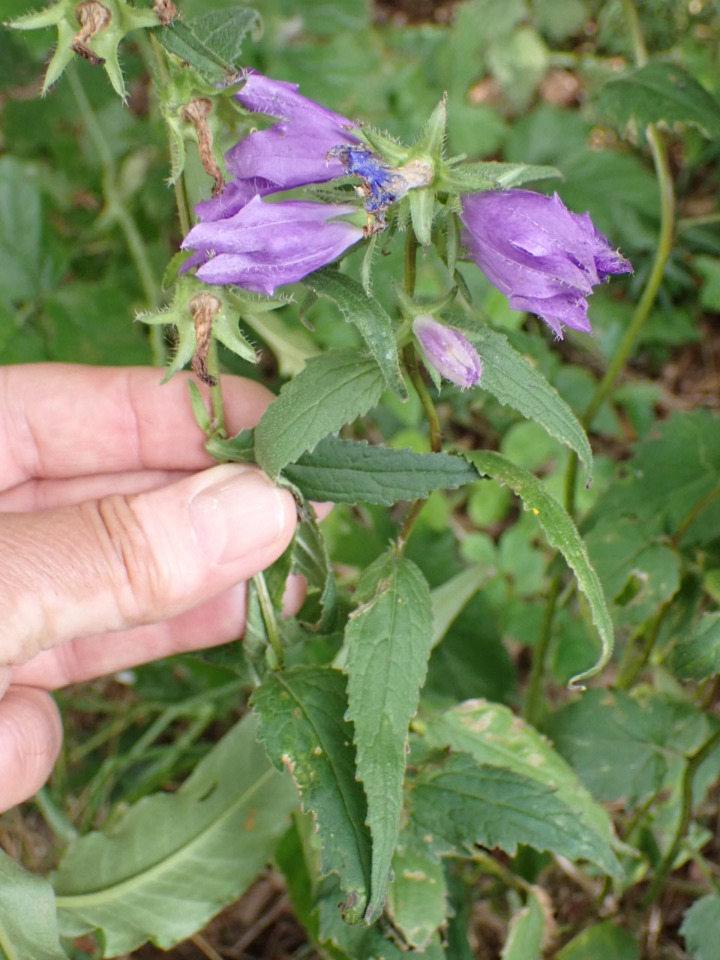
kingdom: Plantae
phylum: Tracheophyta
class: Magnoliopsida
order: Asterales
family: Campanulaceae
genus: Campanula
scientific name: Campanula trachelium
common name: Nælde-klokke
